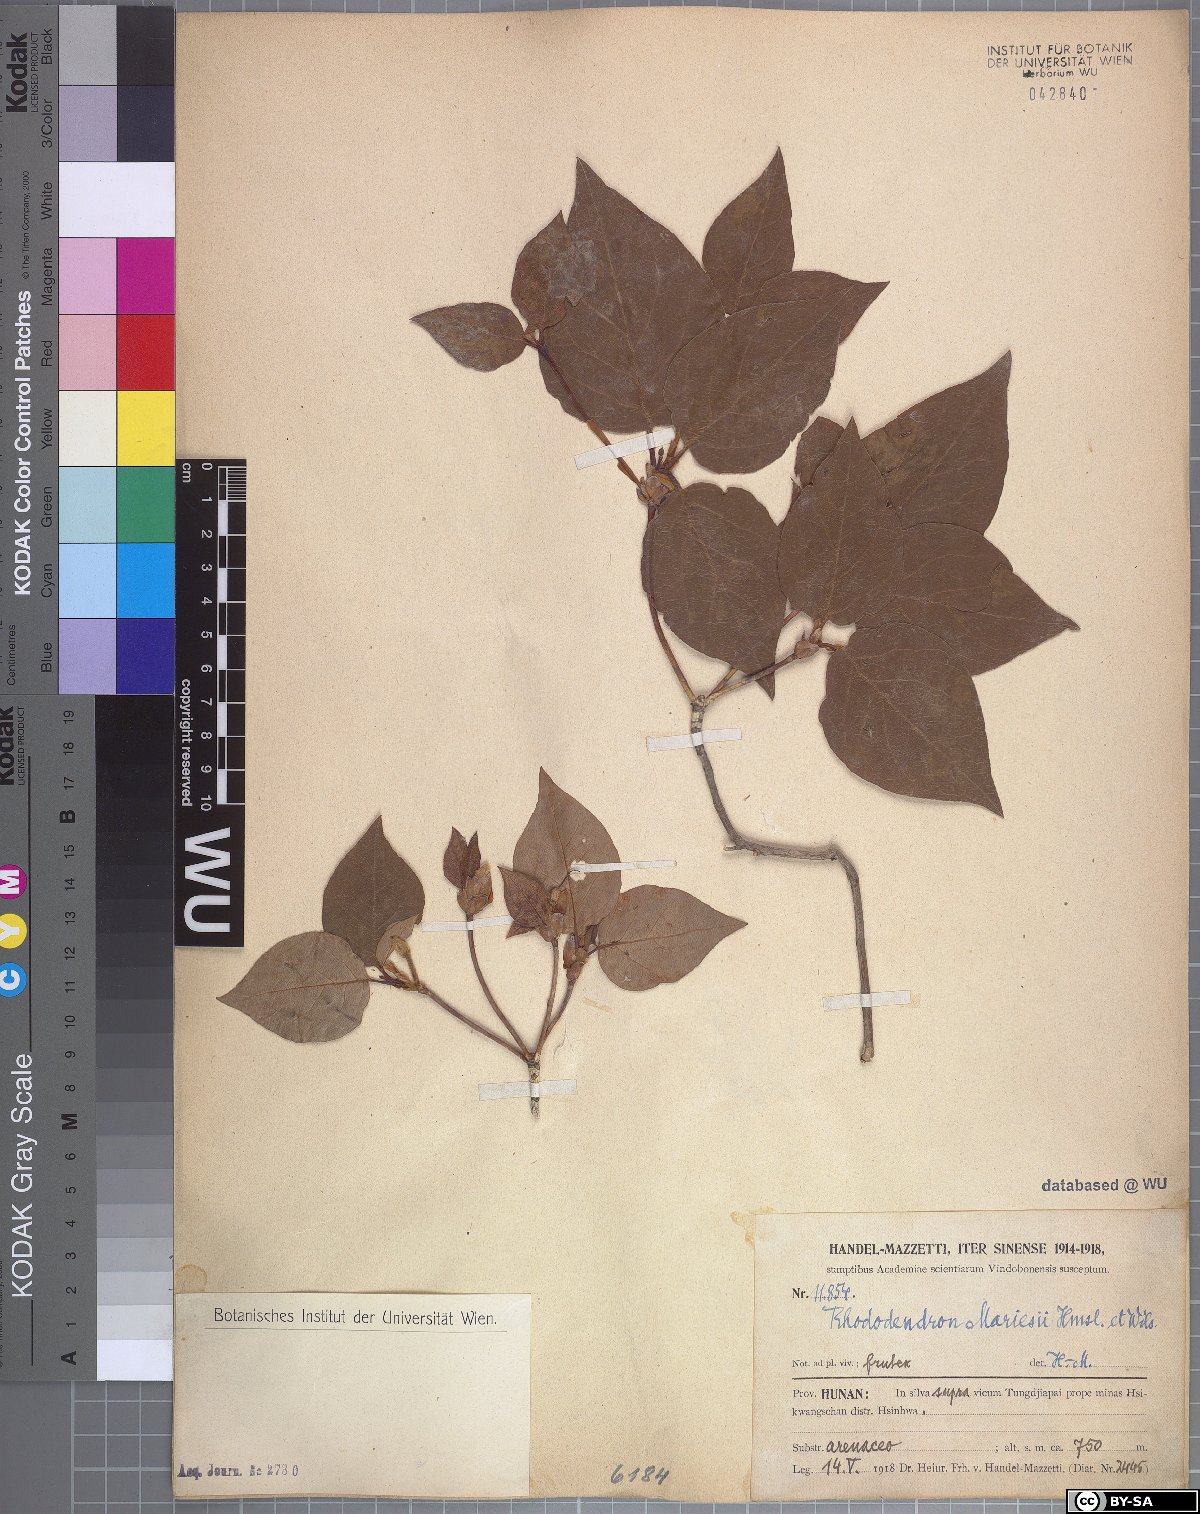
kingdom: Plantae
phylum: Tracheophyta
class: Magnoliopsida
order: Ericales
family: Ericaceae
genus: Rhododendron
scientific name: Rhododendron mariesii
